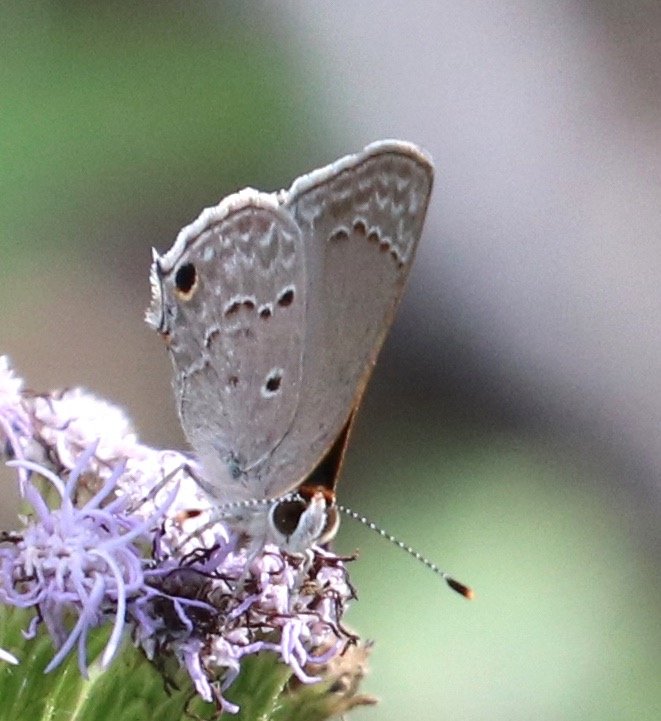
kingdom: Animalia
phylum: Arthropoda
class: Insecta
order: Lepidoptera
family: Lycaenidae
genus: Callicista
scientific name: Callicista columella
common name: Mallow Scrub-Hairstreak
